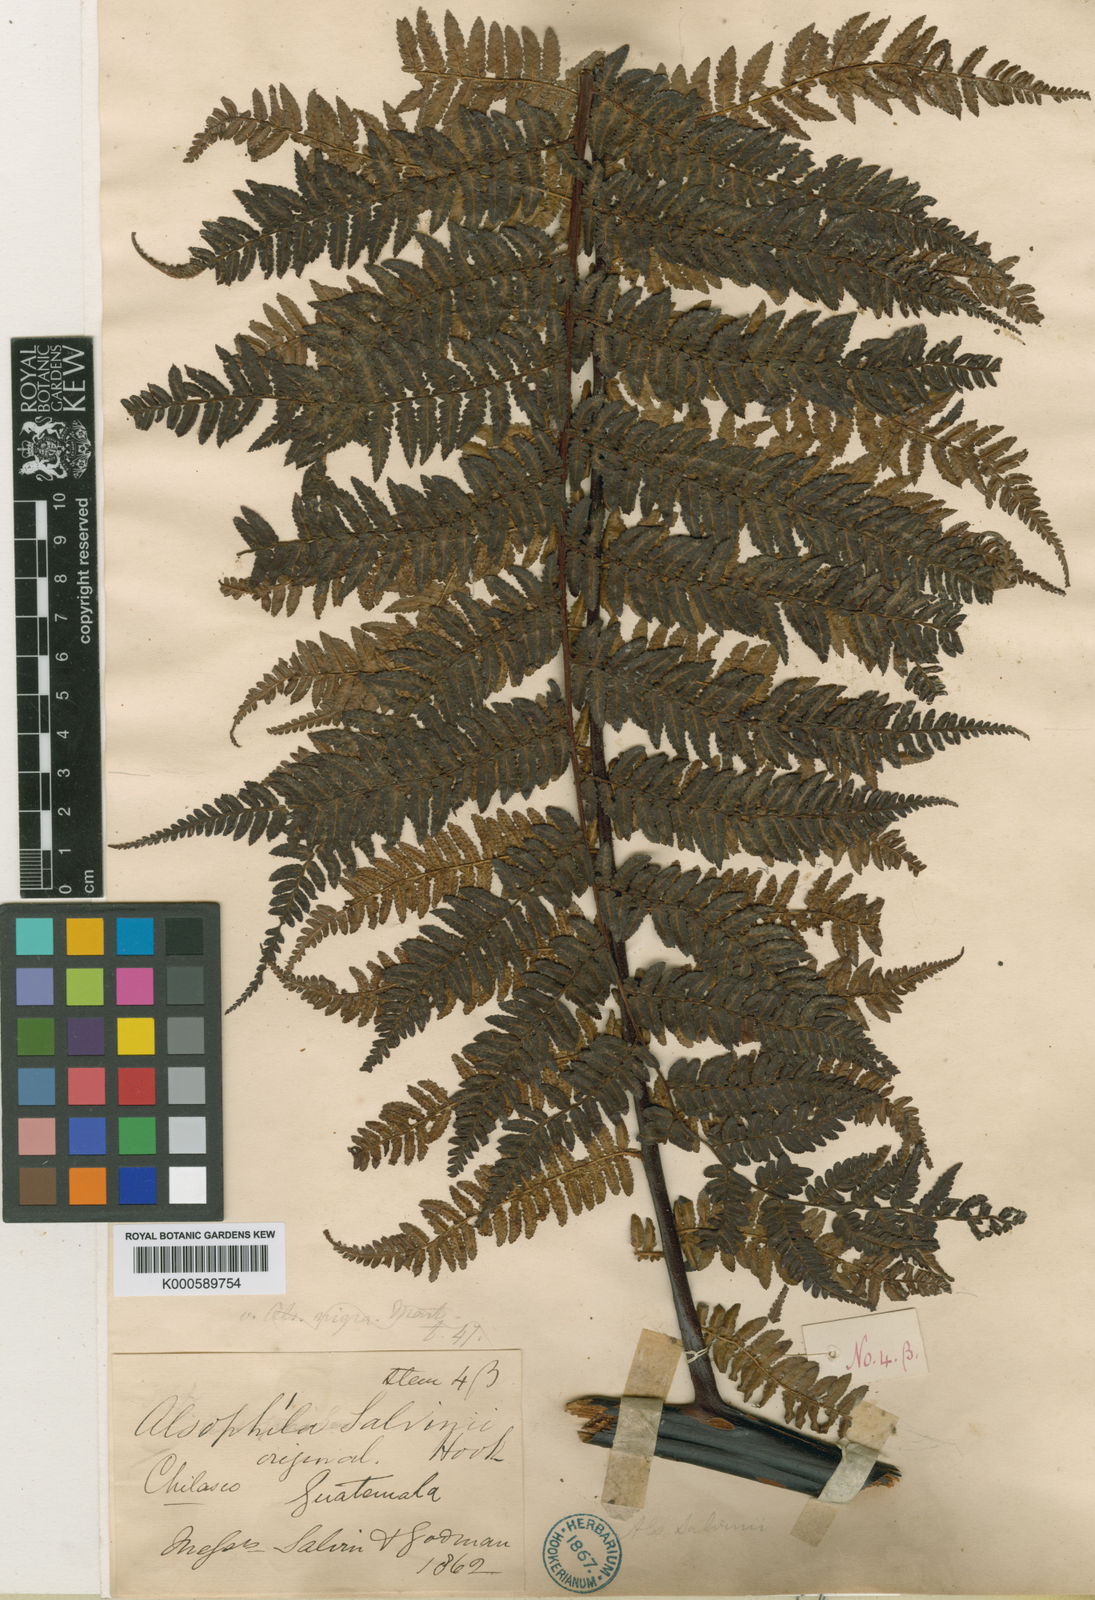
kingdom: Plantae
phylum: Tracheophyta
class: Polypodiopsida
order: Cyatheales
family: Cyatheaceae
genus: Gymnosphaera
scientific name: Gymnosphaera salvinii
